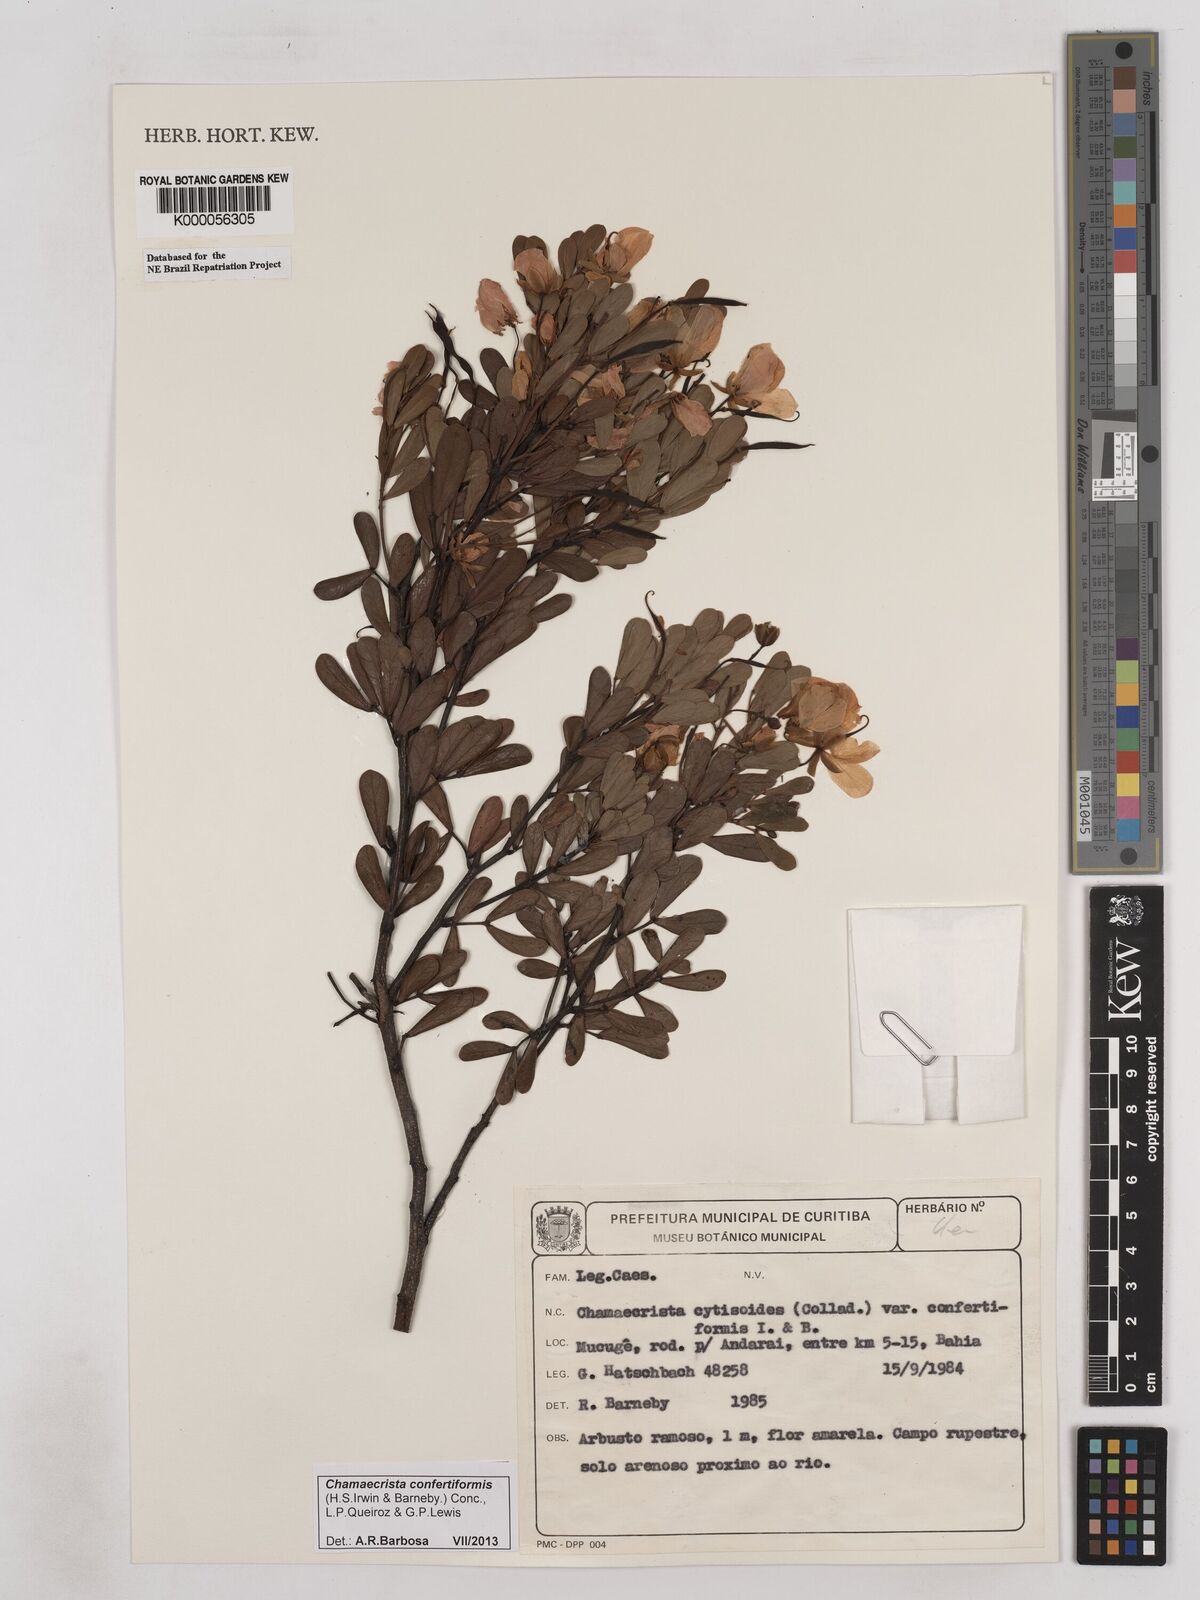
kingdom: Plantae
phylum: Tracheophyta
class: Magnoliopsida
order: Fabales
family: Fabaceae
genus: Chamaecrista
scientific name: Chamaecrista confertiformis
